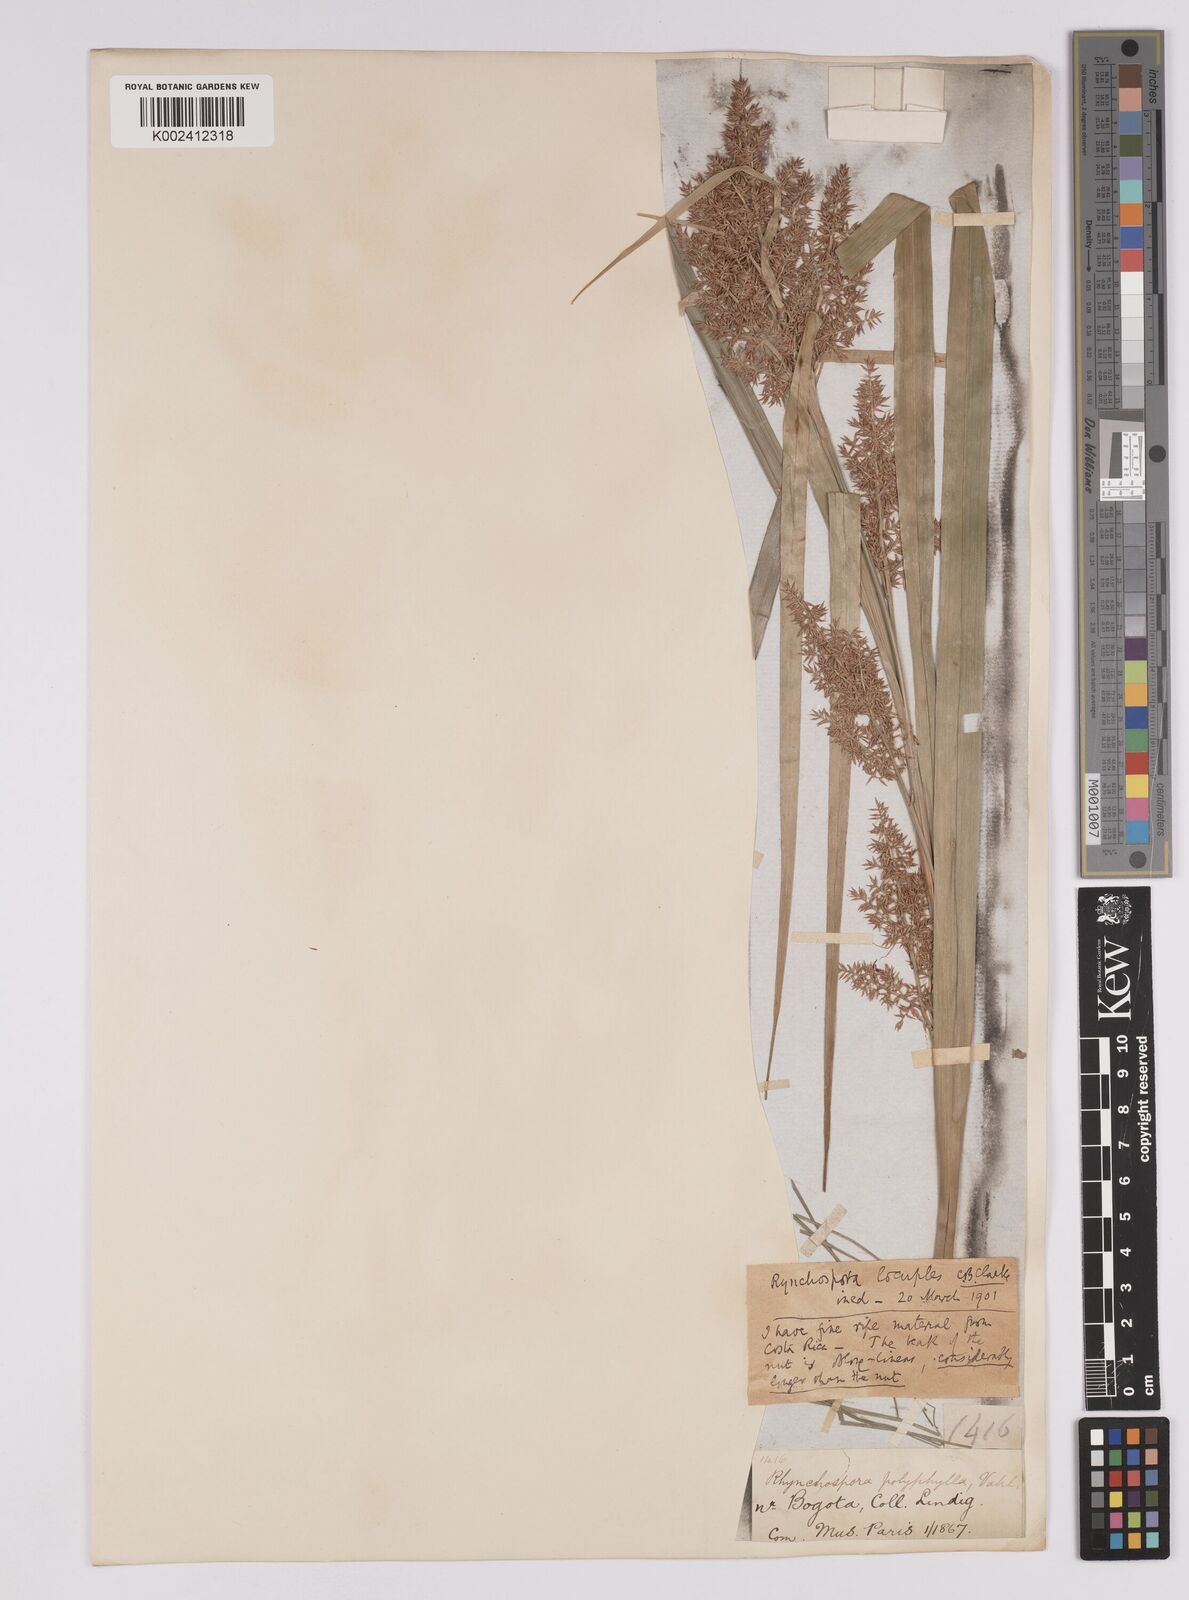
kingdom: Plantae
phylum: Tracheophyta
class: Liliopsida
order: Poales
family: Cyperaceae
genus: Rhynchospora
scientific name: Rhynchospora locuples
